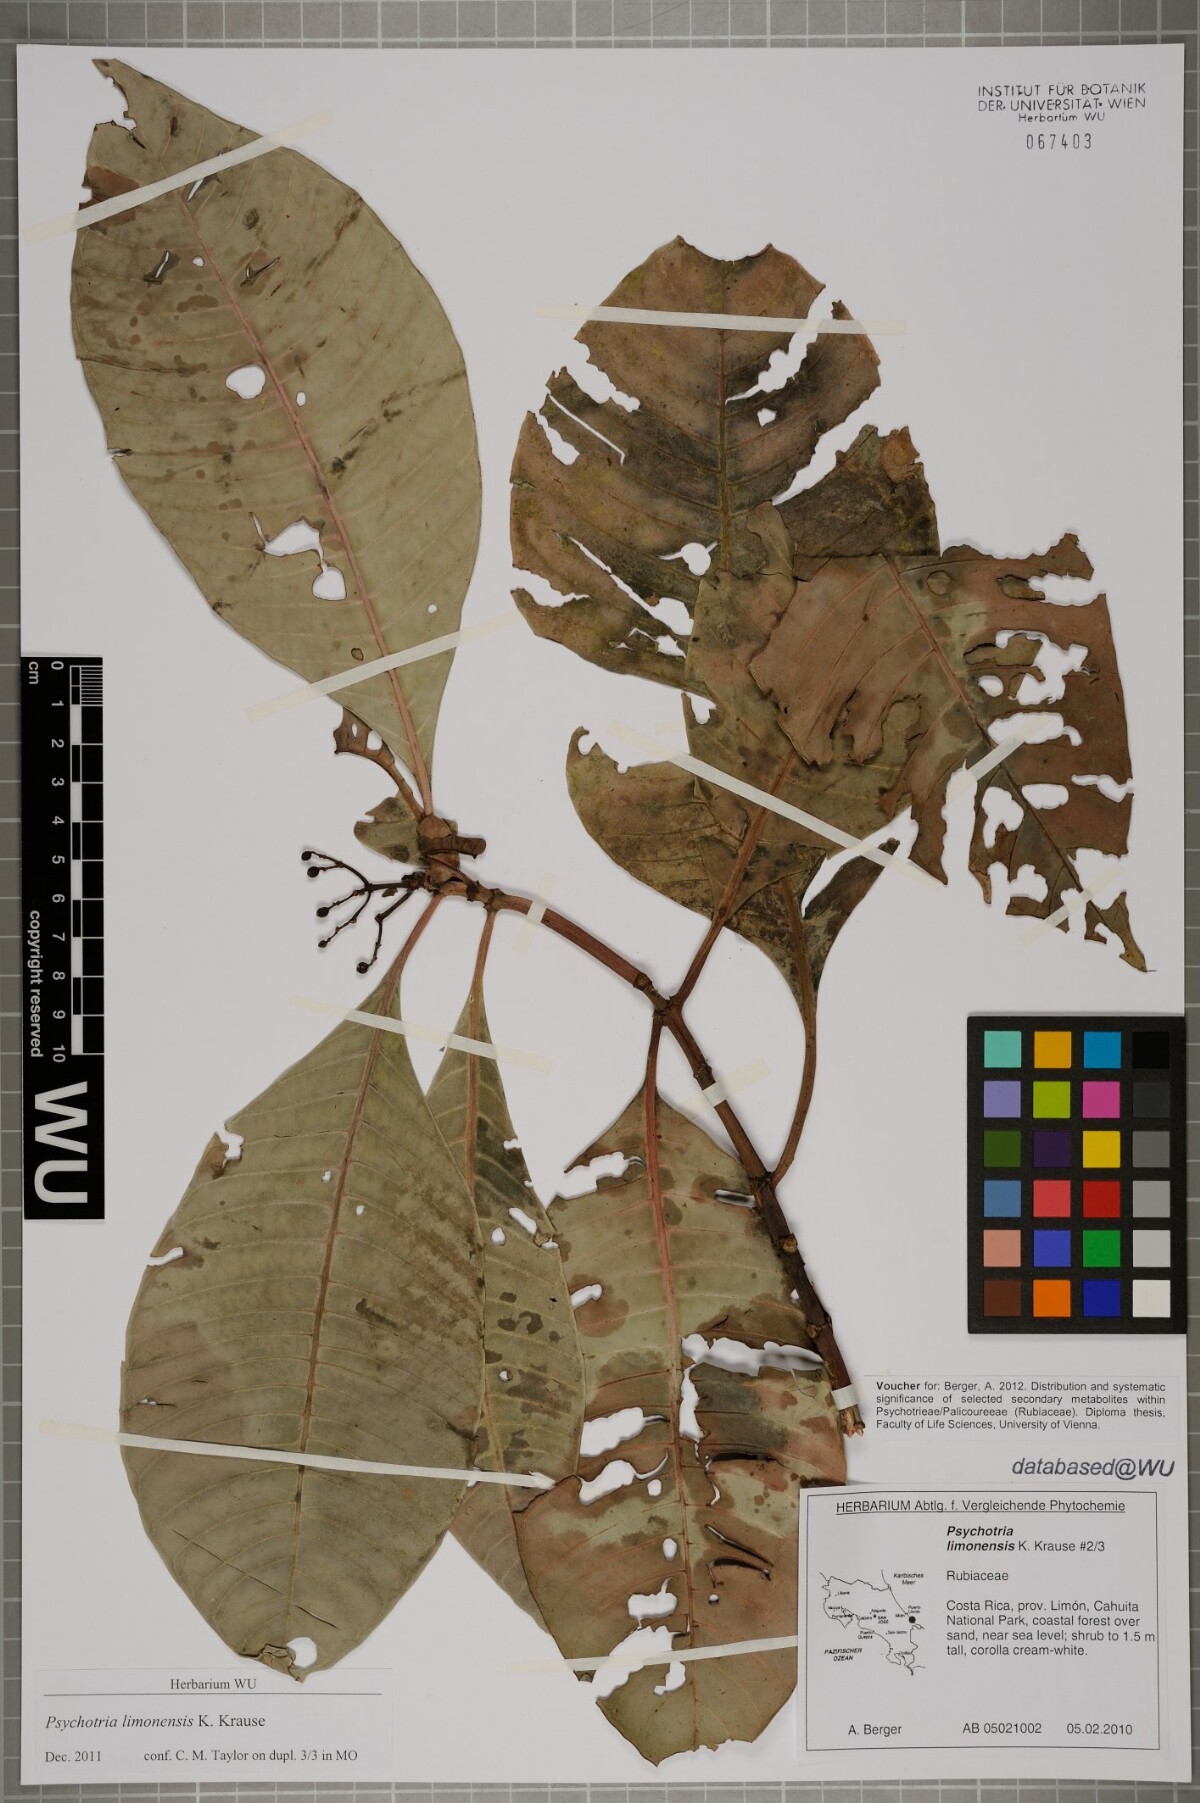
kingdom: Plantae
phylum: Tracheophyta
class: Magnoliopsida
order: Gentianales
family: Rubiaceae
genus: Psychotria
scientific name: Psychotria limonensis
